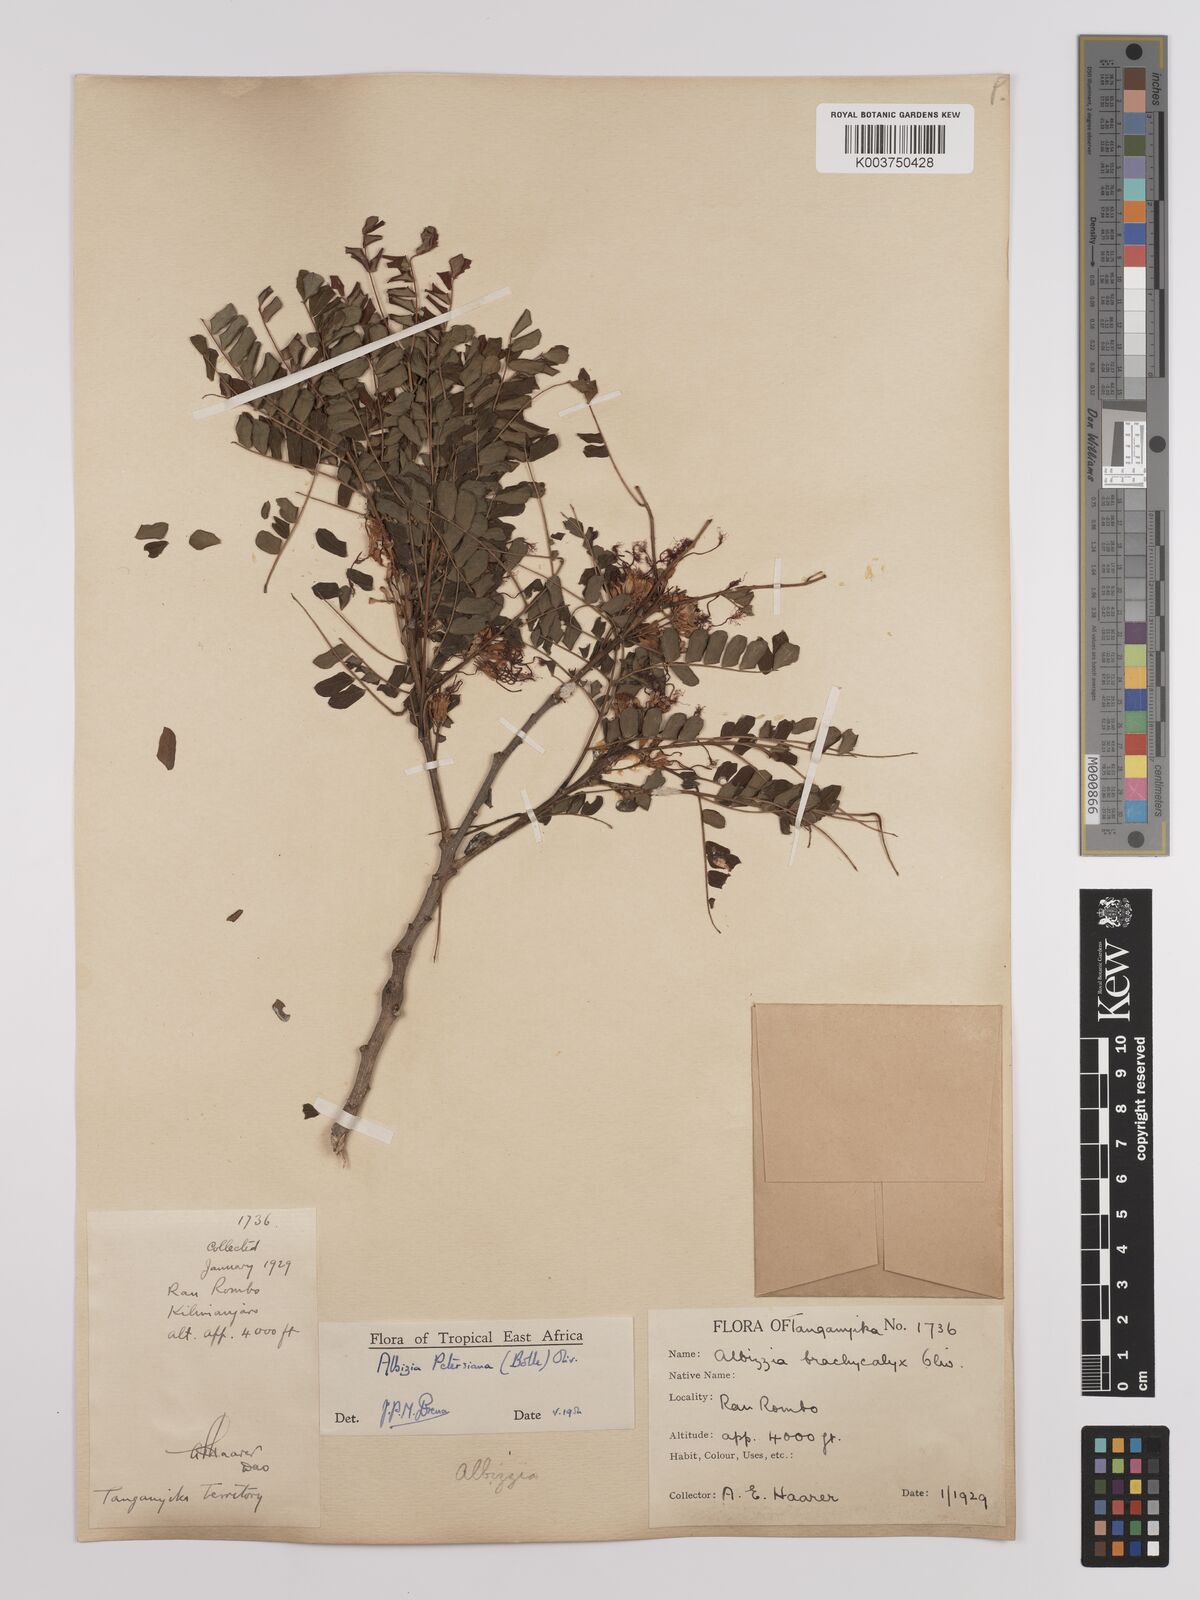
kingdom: Plantae
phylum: Tracheophyta
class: Magnoliopsida
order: Fabales
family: Fabaceae
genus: Albizia
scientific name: Albizia petersiana
